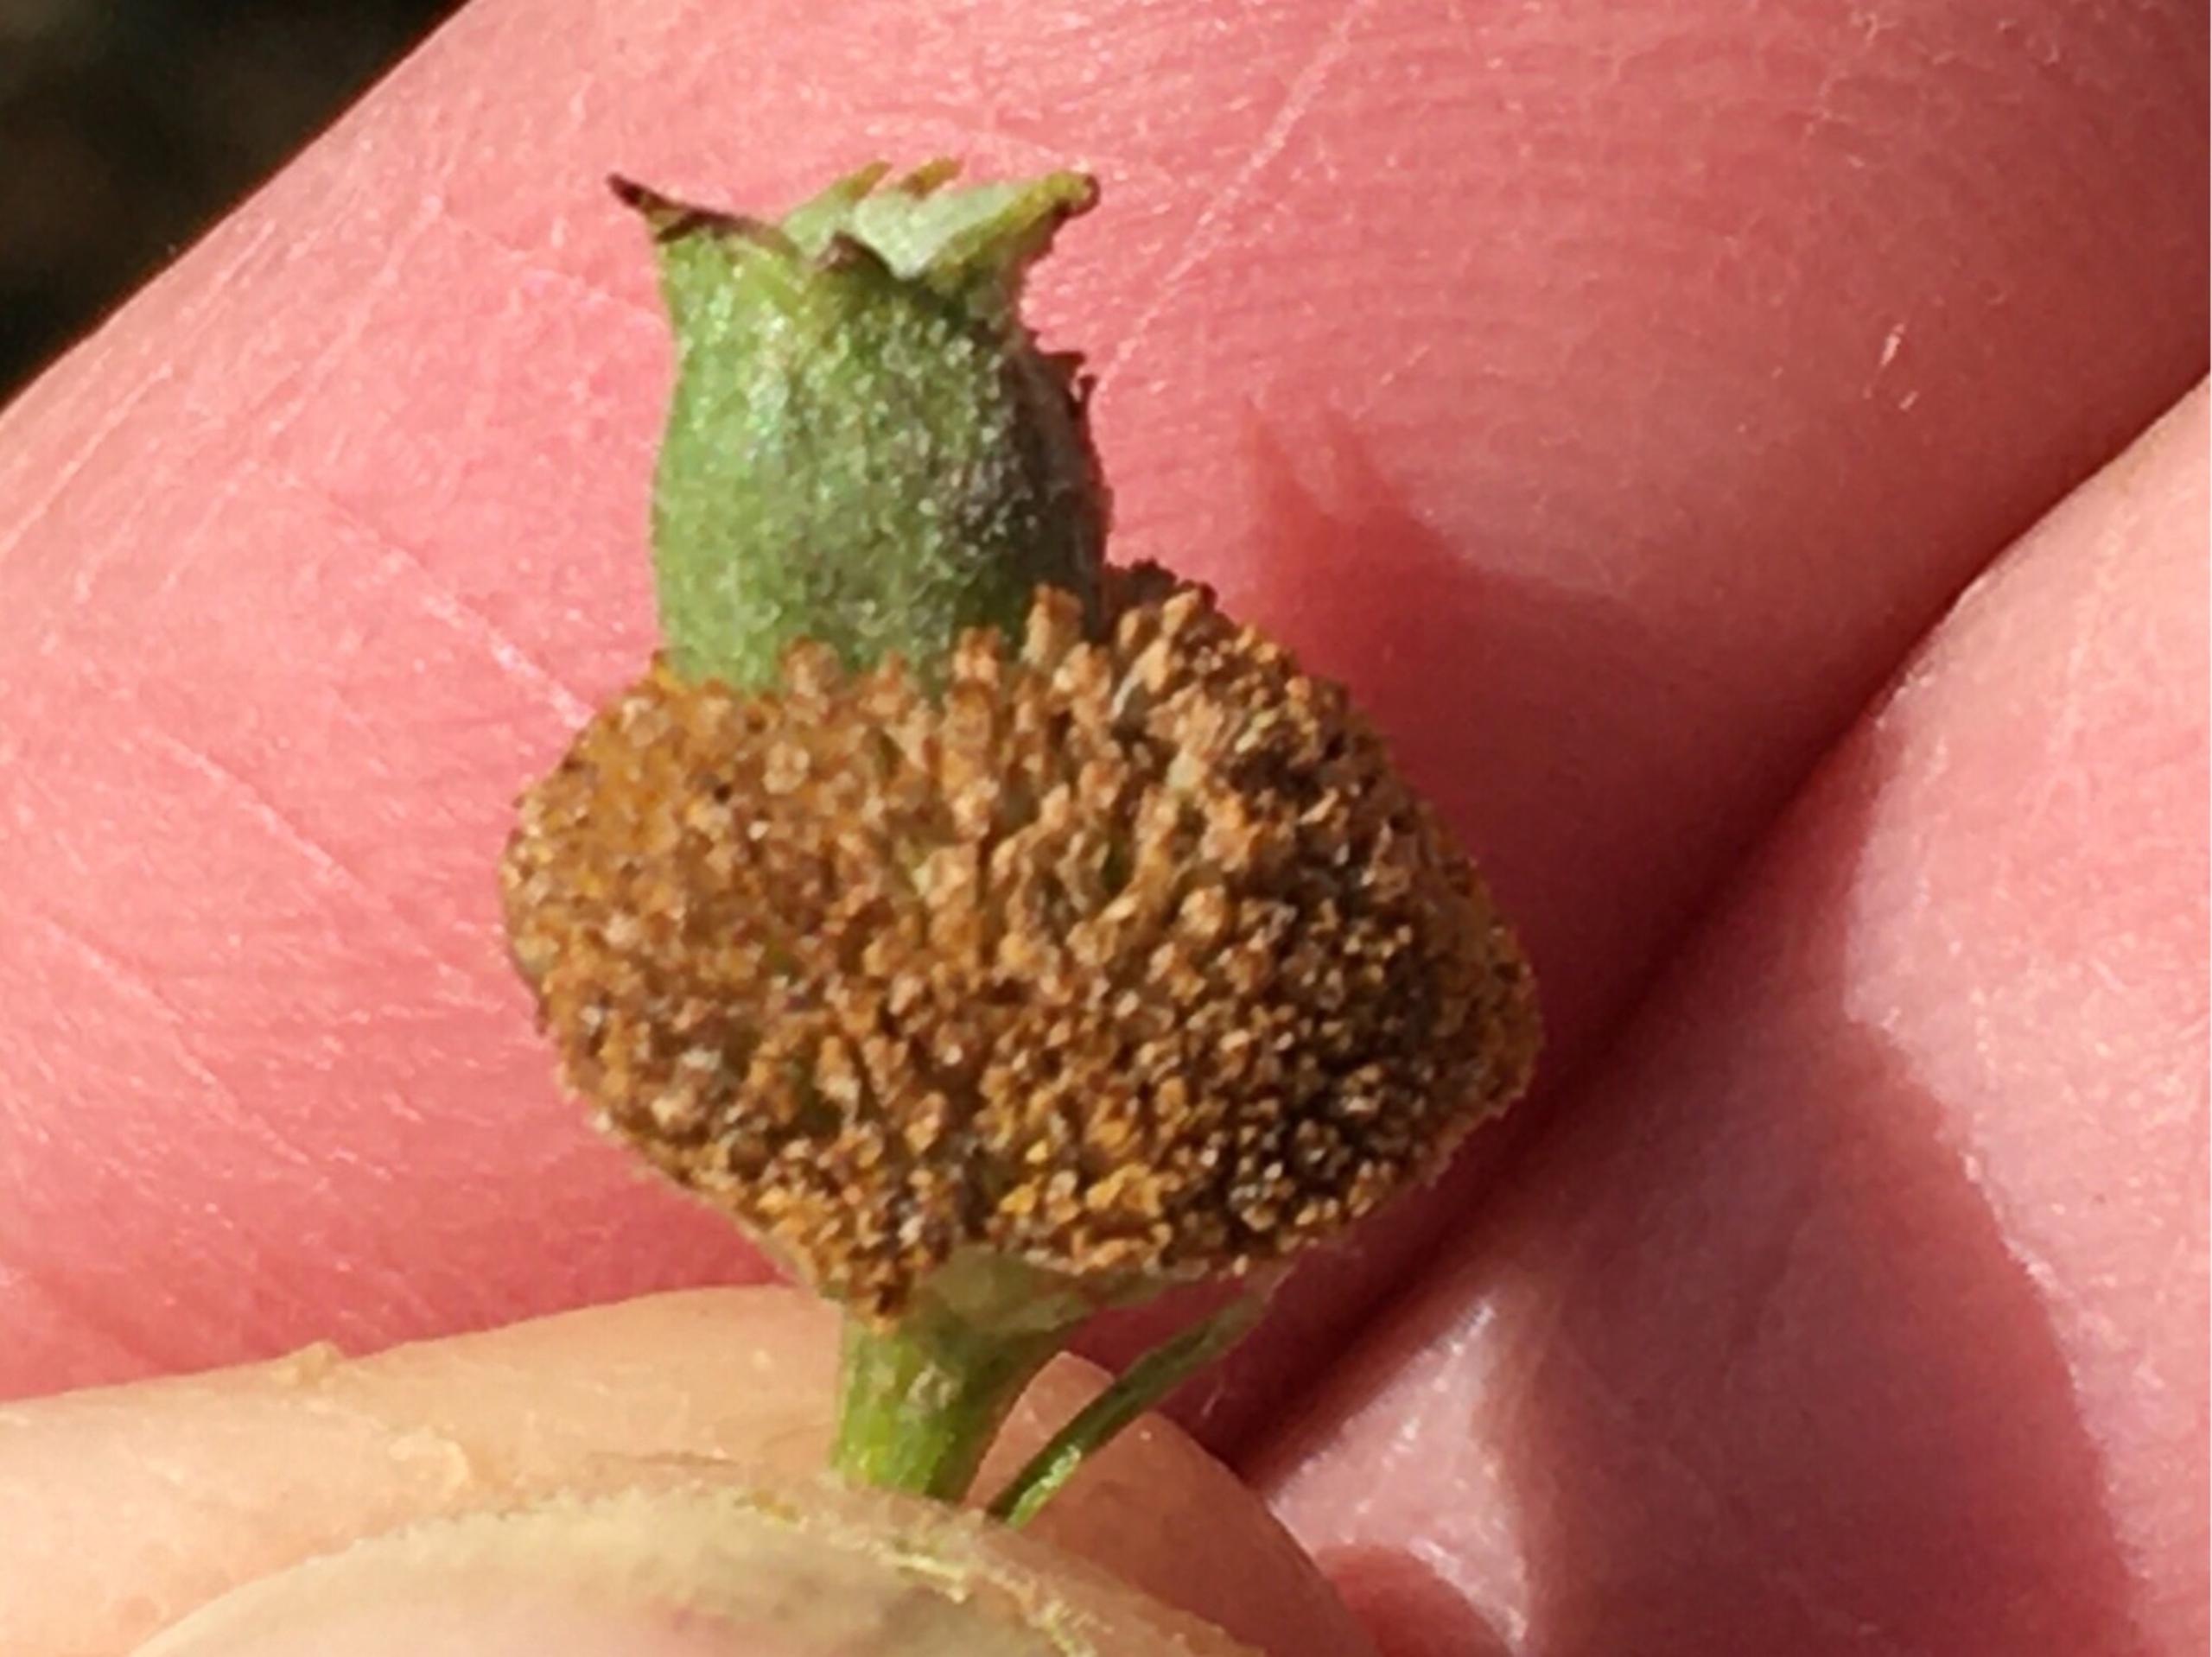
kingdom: Animalia
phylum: Arthropoda
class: Insecta
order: Diptera
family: Cecidomyiidae
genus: Rhopalomyia
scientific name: Rhopalomyia tanaceticolus
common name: Rejnfangalmyg
